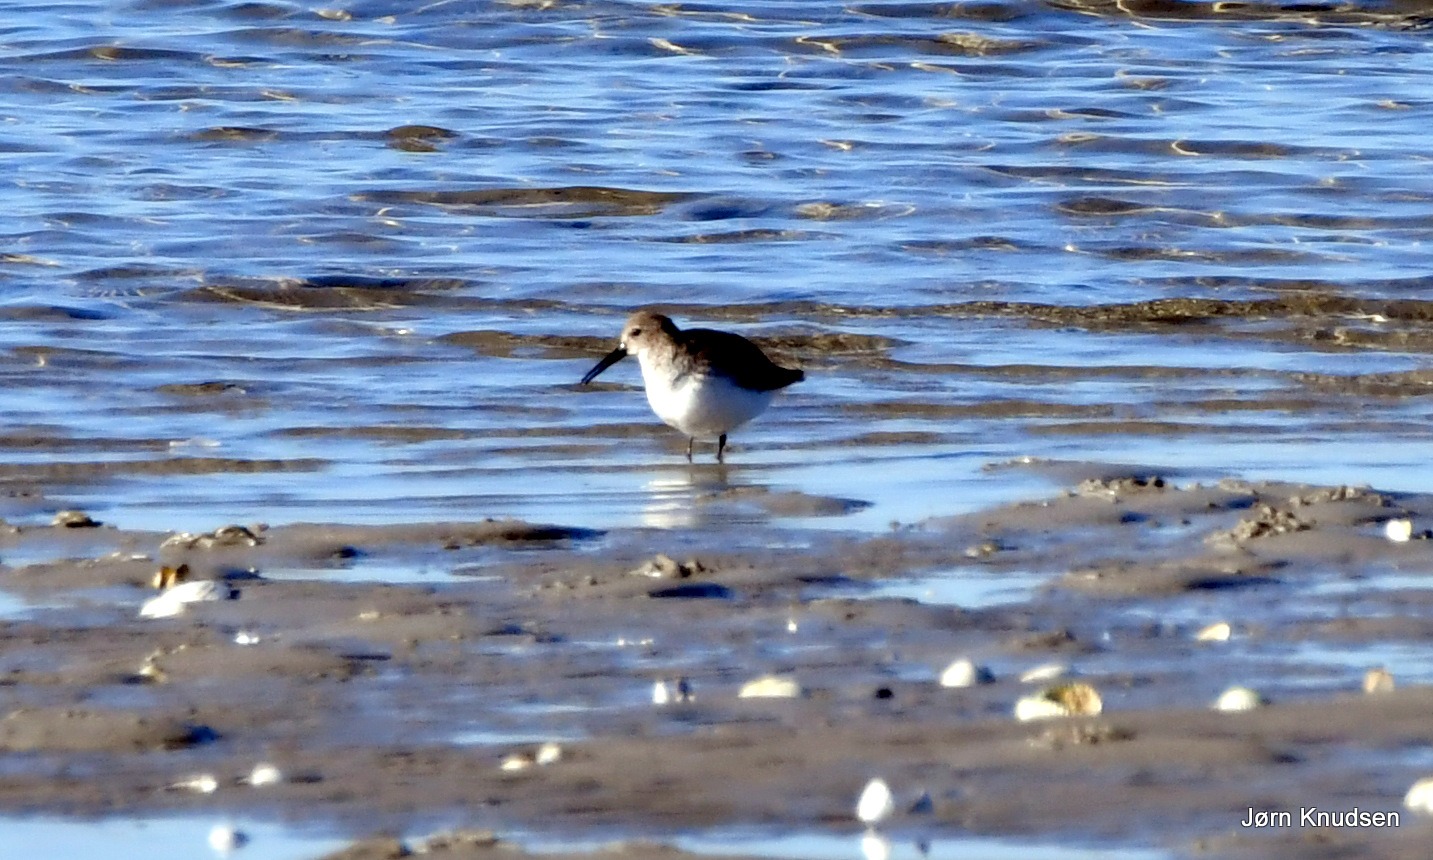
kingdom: Animalia
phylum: Chordata
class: Aves
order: Charadriiformes
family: Scolopacidae
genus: Calidris
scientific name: Calidris alpina
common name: Almindelig ryle
